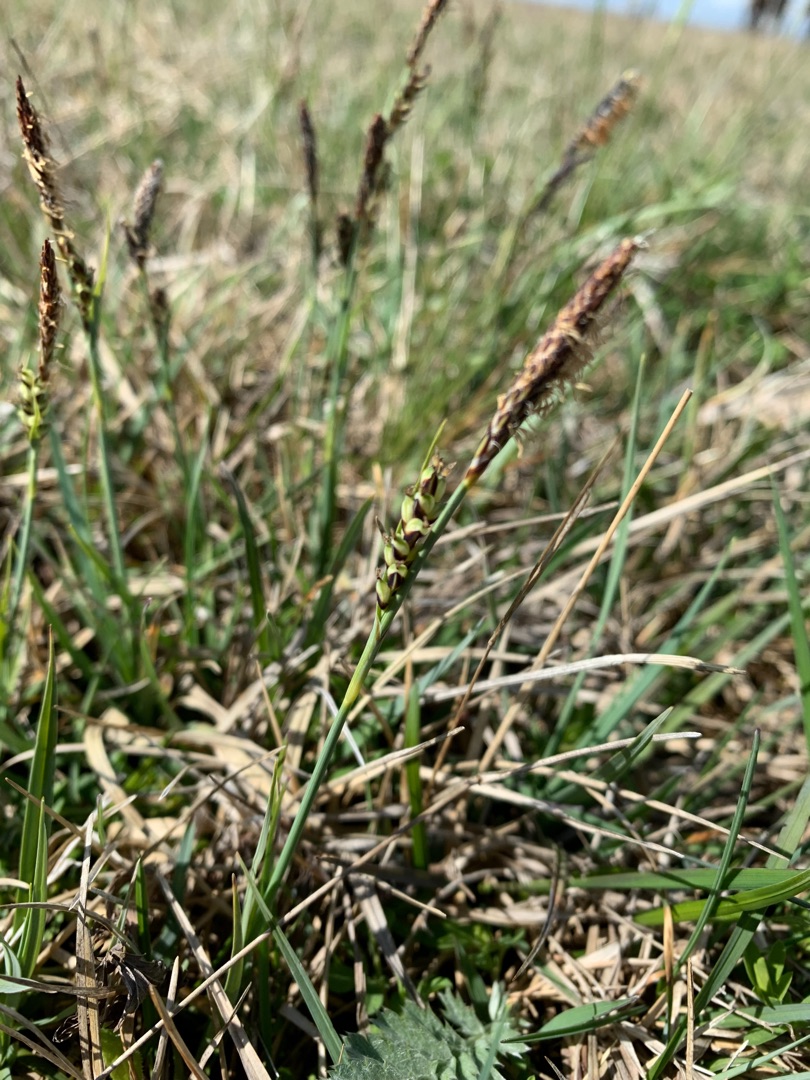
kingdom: Plantae
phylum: Tracheophyta
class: Liliopsida
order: Poales
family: Cyperaceae
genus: Carex
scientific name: Carex panicea
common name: Hirse-star
